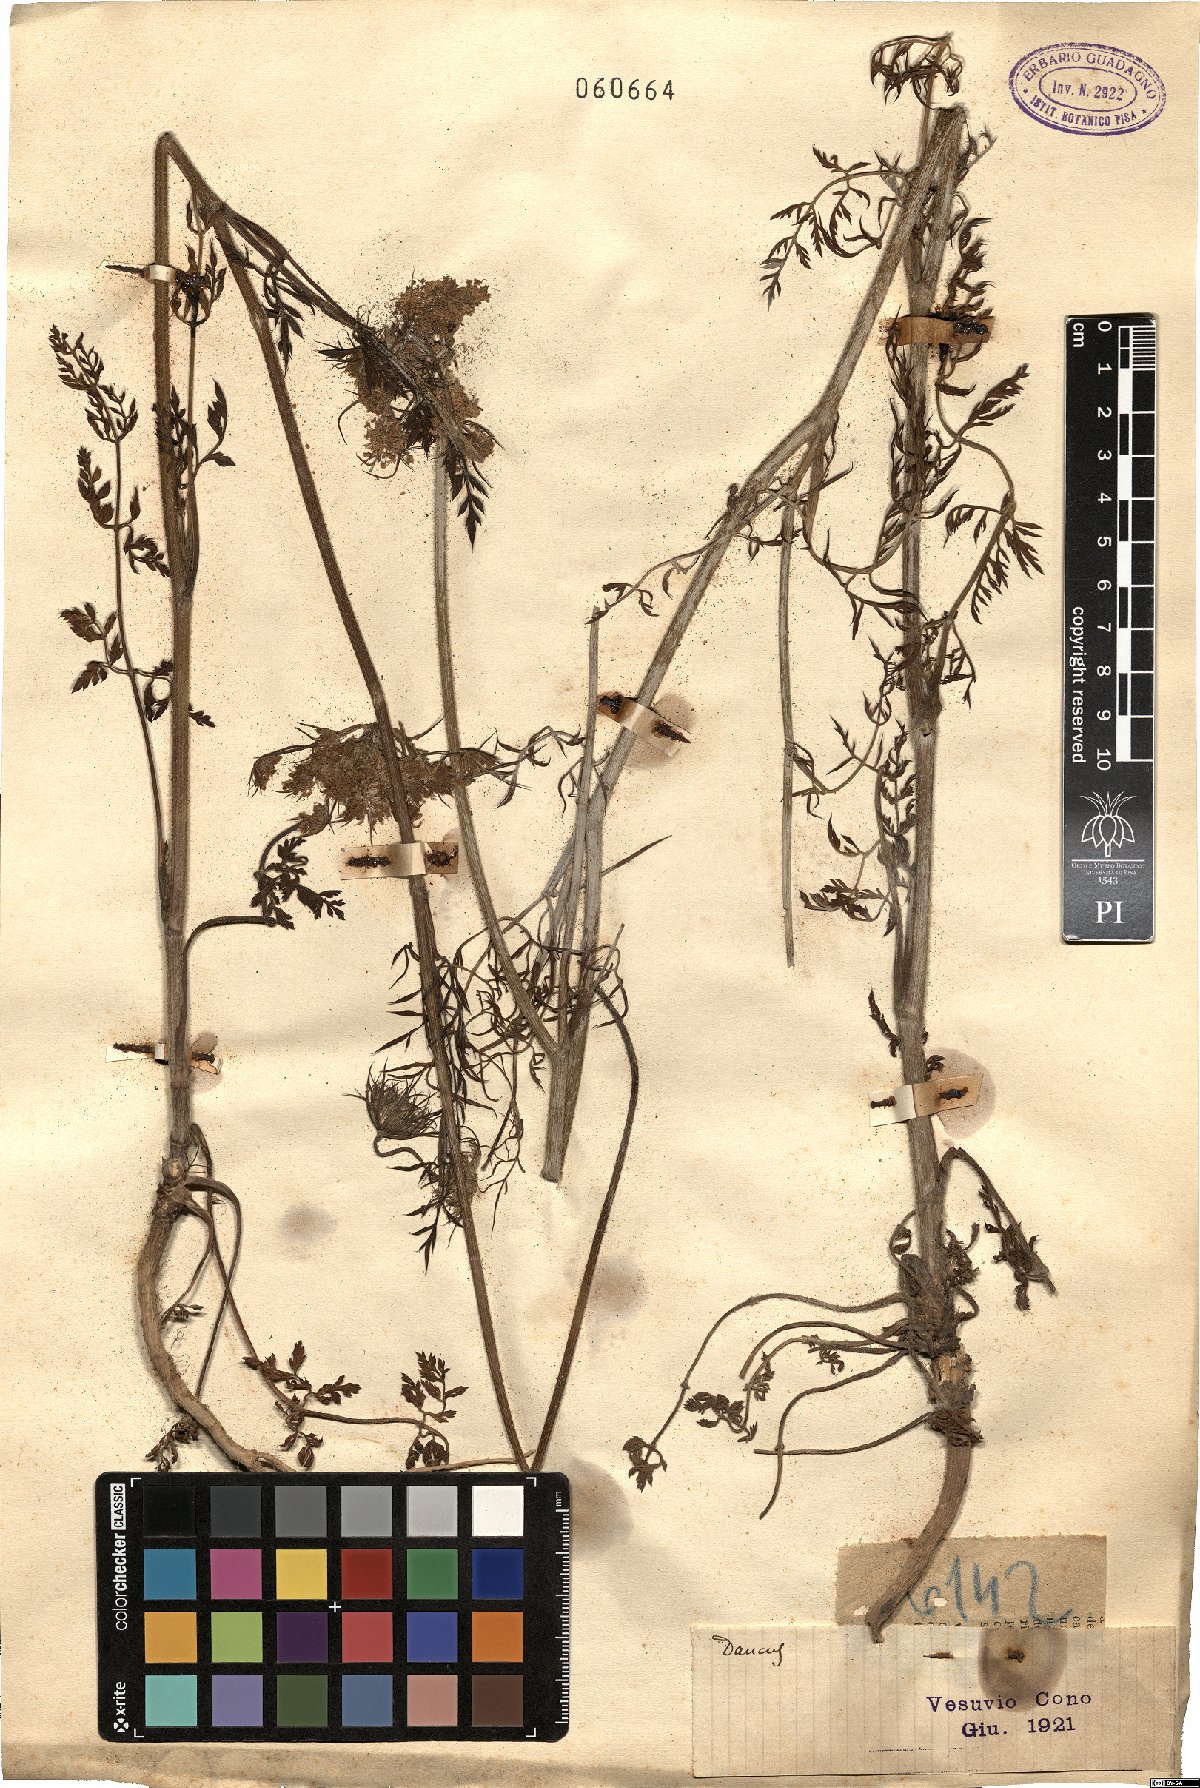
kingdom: Plantae
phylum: Tracheophyta
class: Magnoliopsida
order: Apiales
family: Apiaceae
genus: Daucus
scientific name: Daucus
